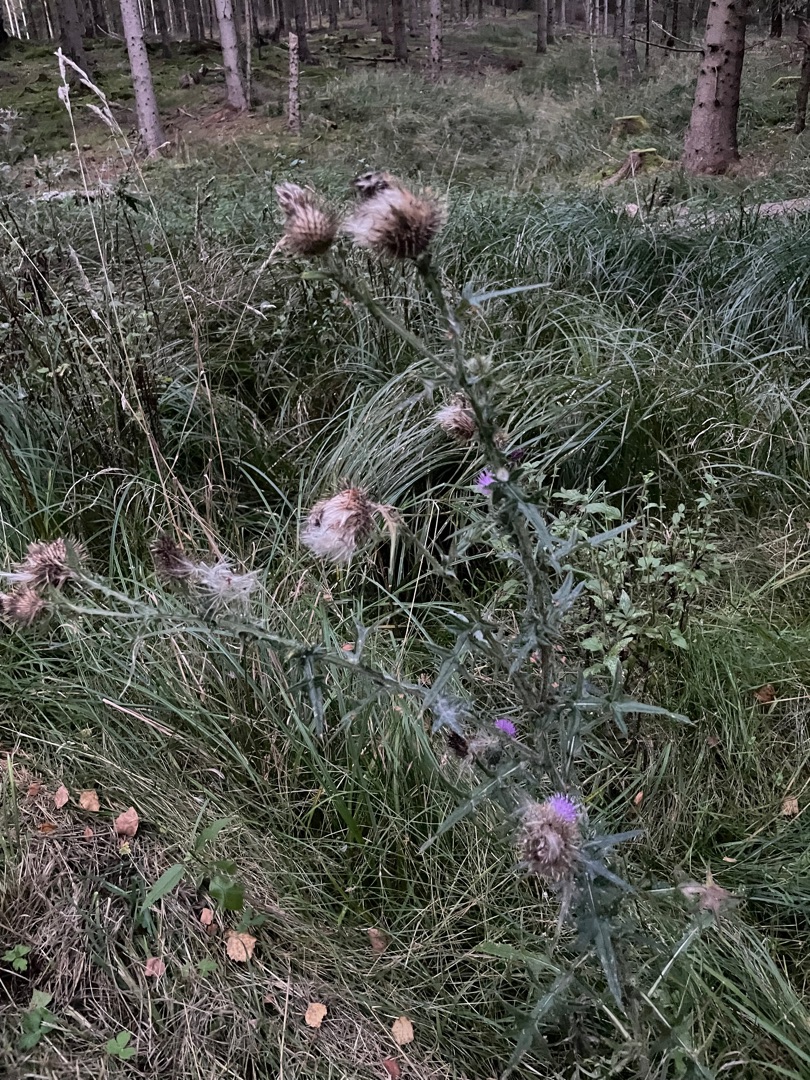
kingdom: Plantae
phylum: Tracheophyta
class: Magnoliopsida
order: Asterales
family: Asteraceae
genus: Cirsium
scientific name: Cirsium vulgare
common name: Horse-tidsel
